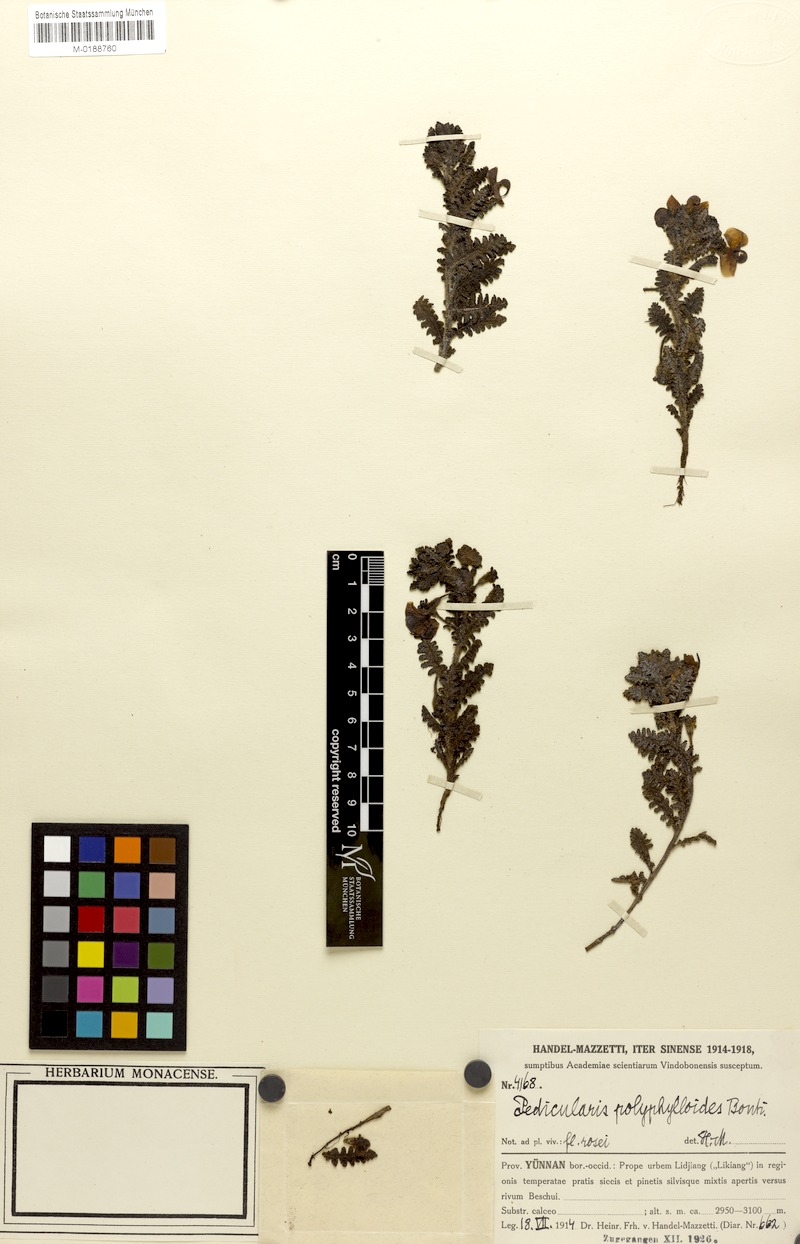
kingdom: Plantae
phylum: Tracheophyta
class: Magnoliopsida
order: Lamiales
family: Orobanchaceae
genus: Pedicularis
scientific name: Pedicularis gruina
